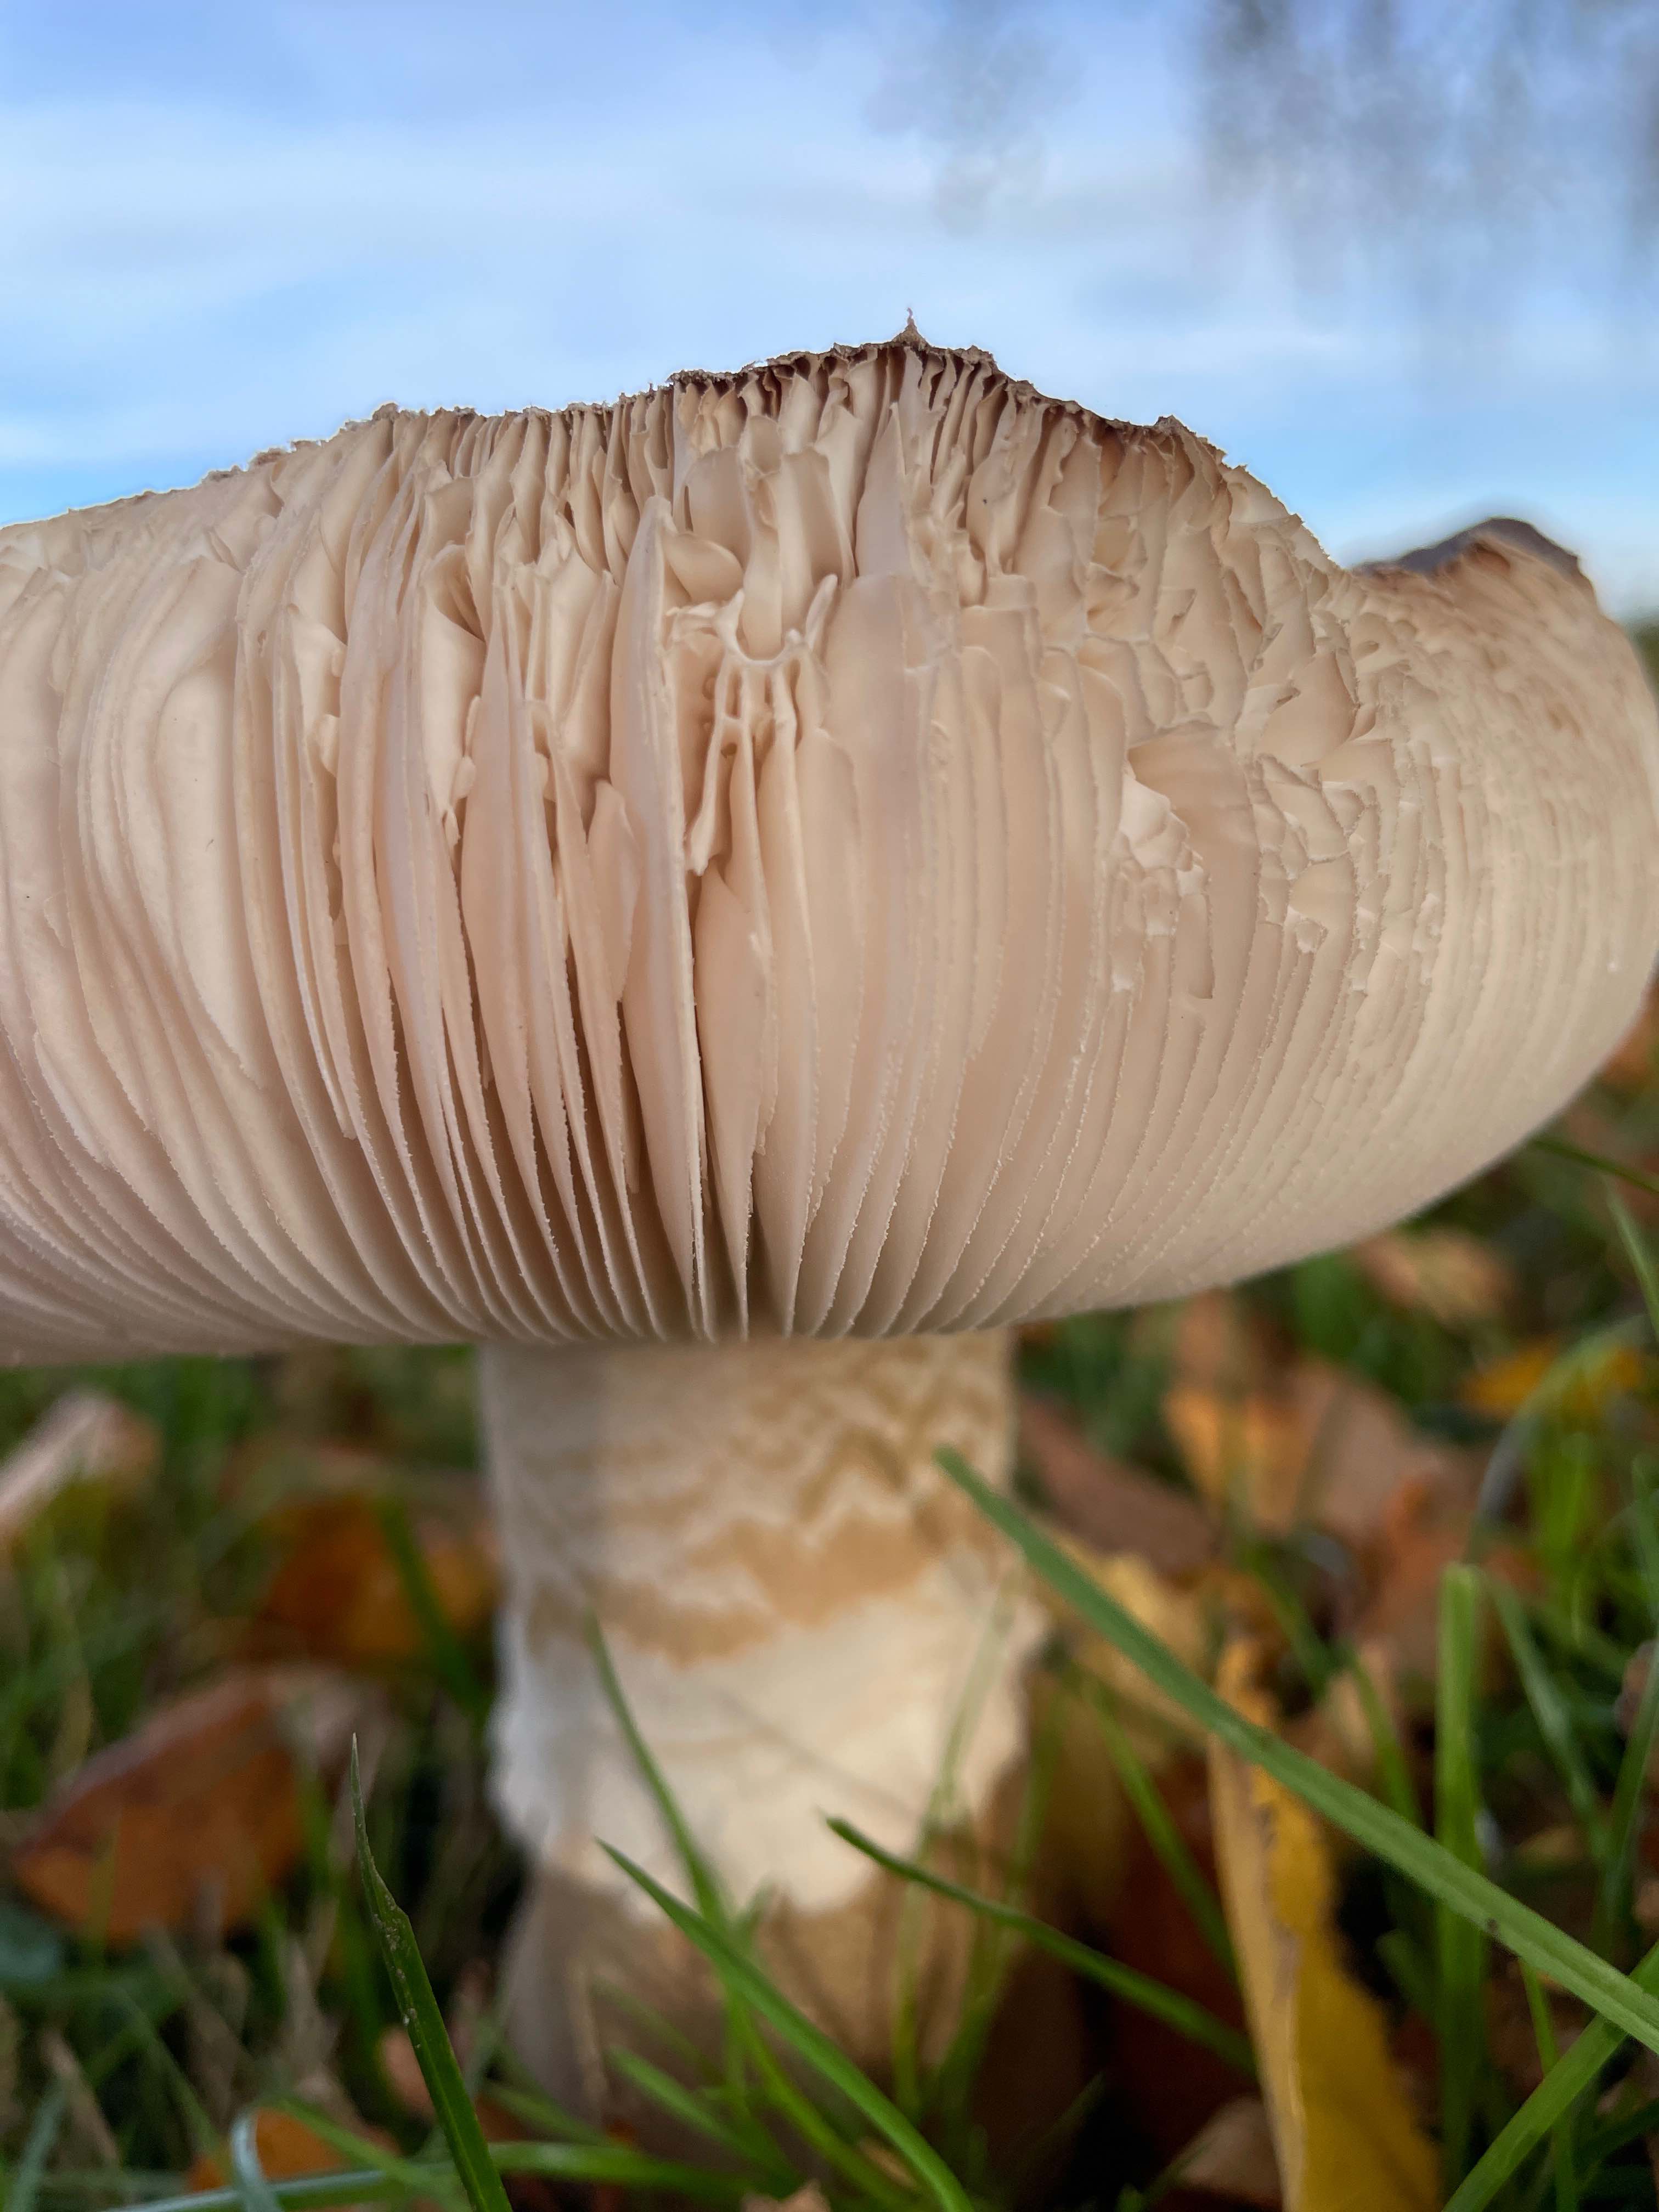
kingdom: Fungi
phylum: Basidiomycota
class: Agaricomycetes
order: Agaricales
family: Amanitaceae
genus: Amanita
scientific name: Amanita rubescens
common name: rødmende fluesvamp
